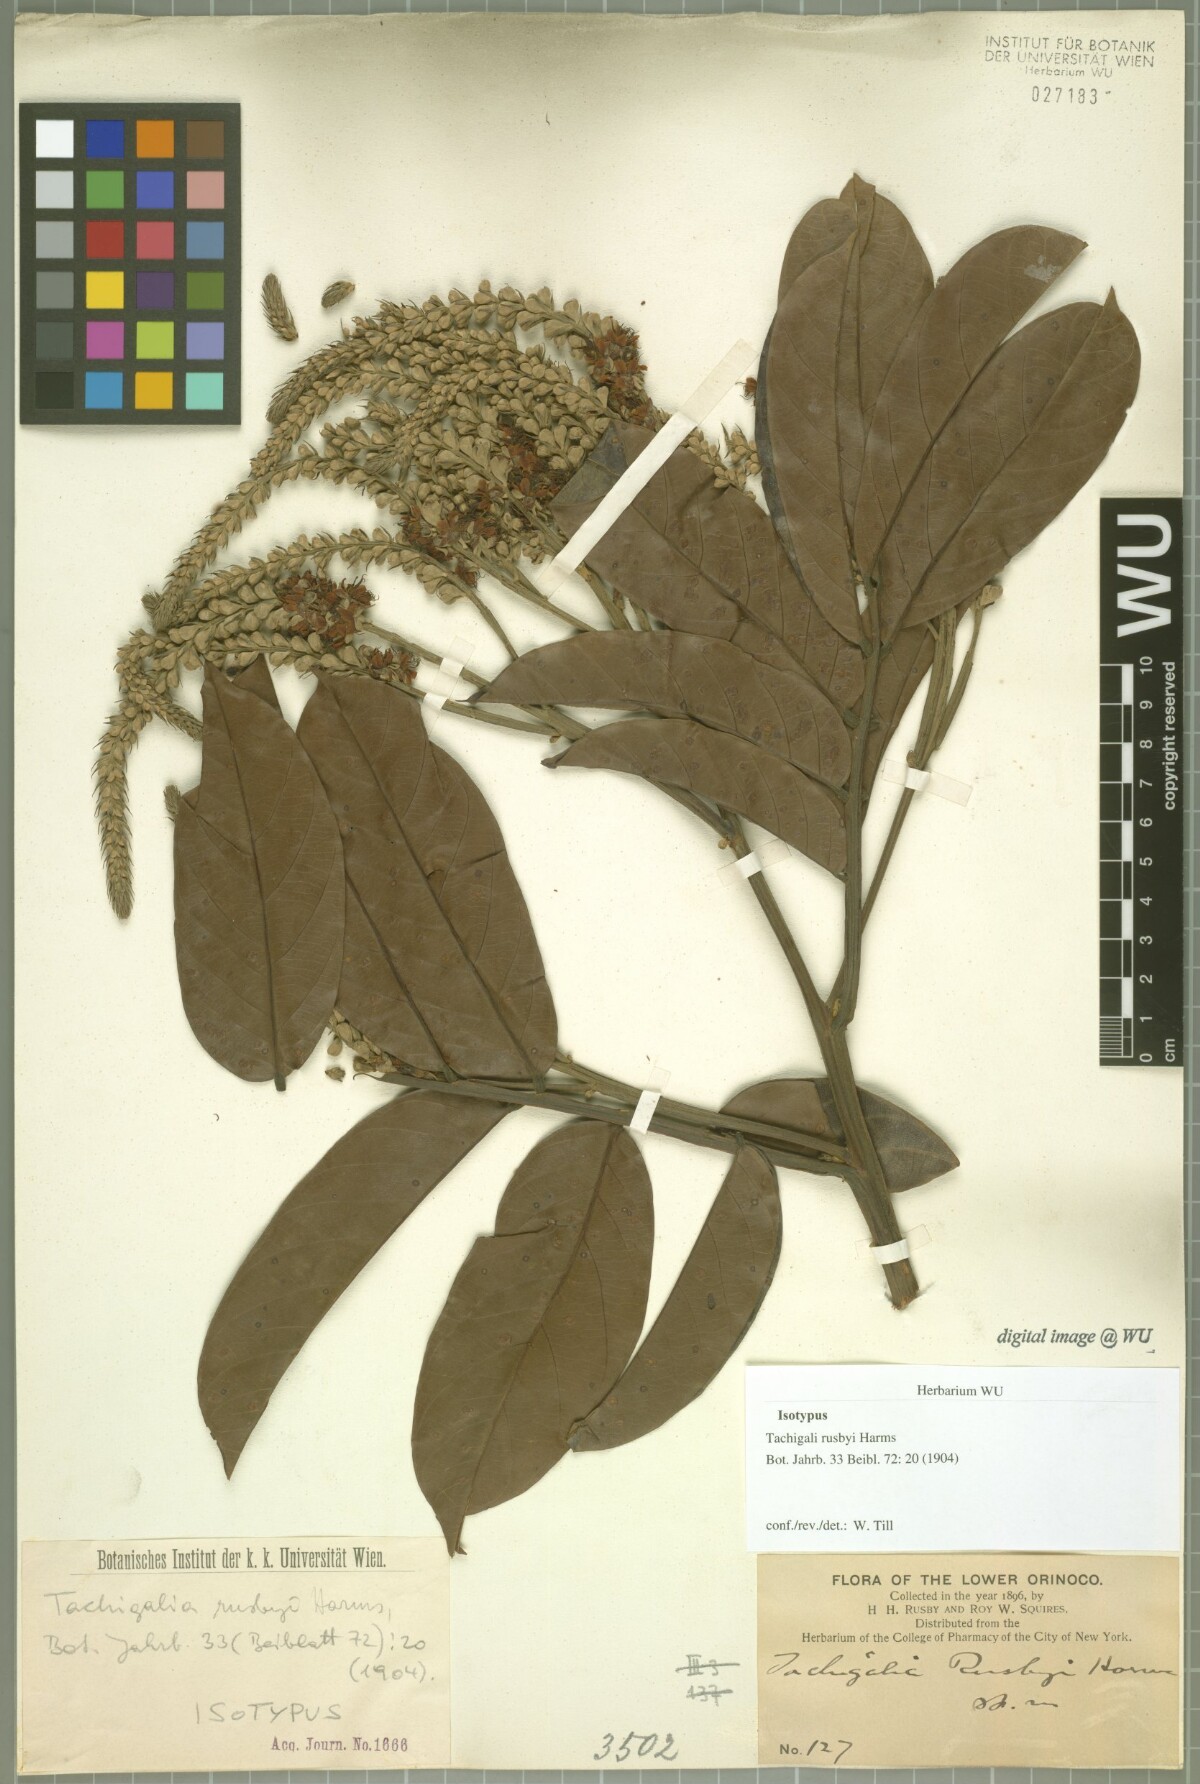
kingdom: Plantae
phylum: Tracheophyta
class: Magnoliopsida
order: Fabales
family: Fabaceae
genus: Tachigali
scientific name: Tachigali paniculata
